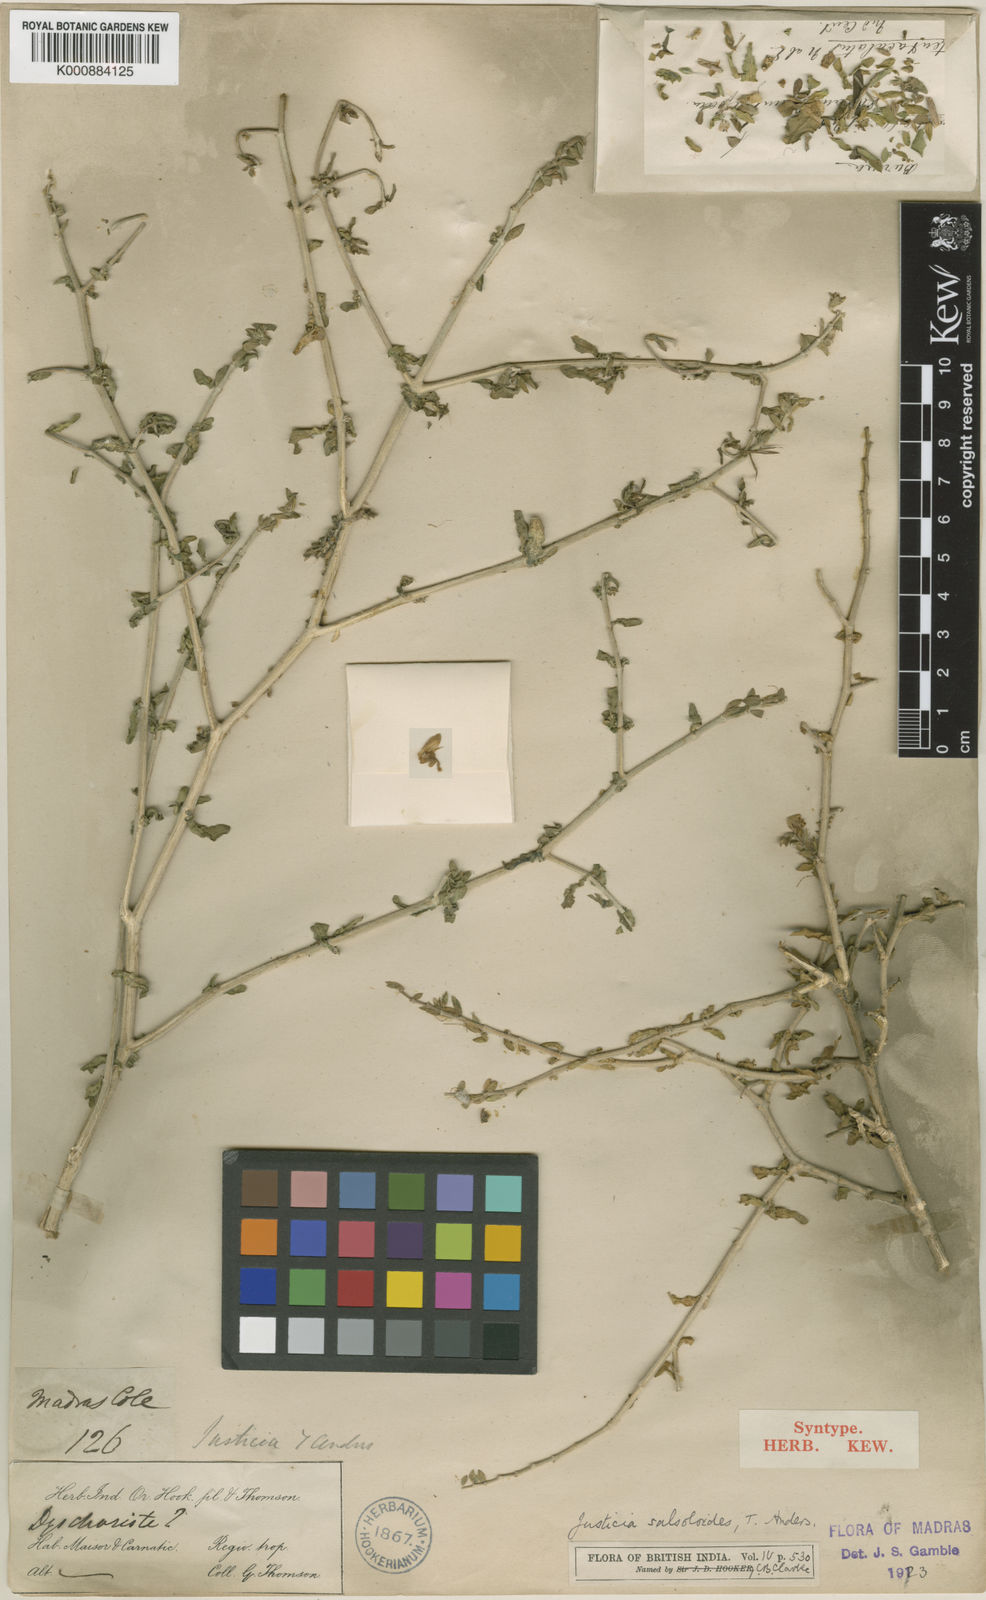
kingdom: Plantae
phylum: Tracheophyta
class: Magnoliopsida
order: Lamiales
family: Acanthaceae
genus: Justicia
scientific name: Justicia salsoloides
